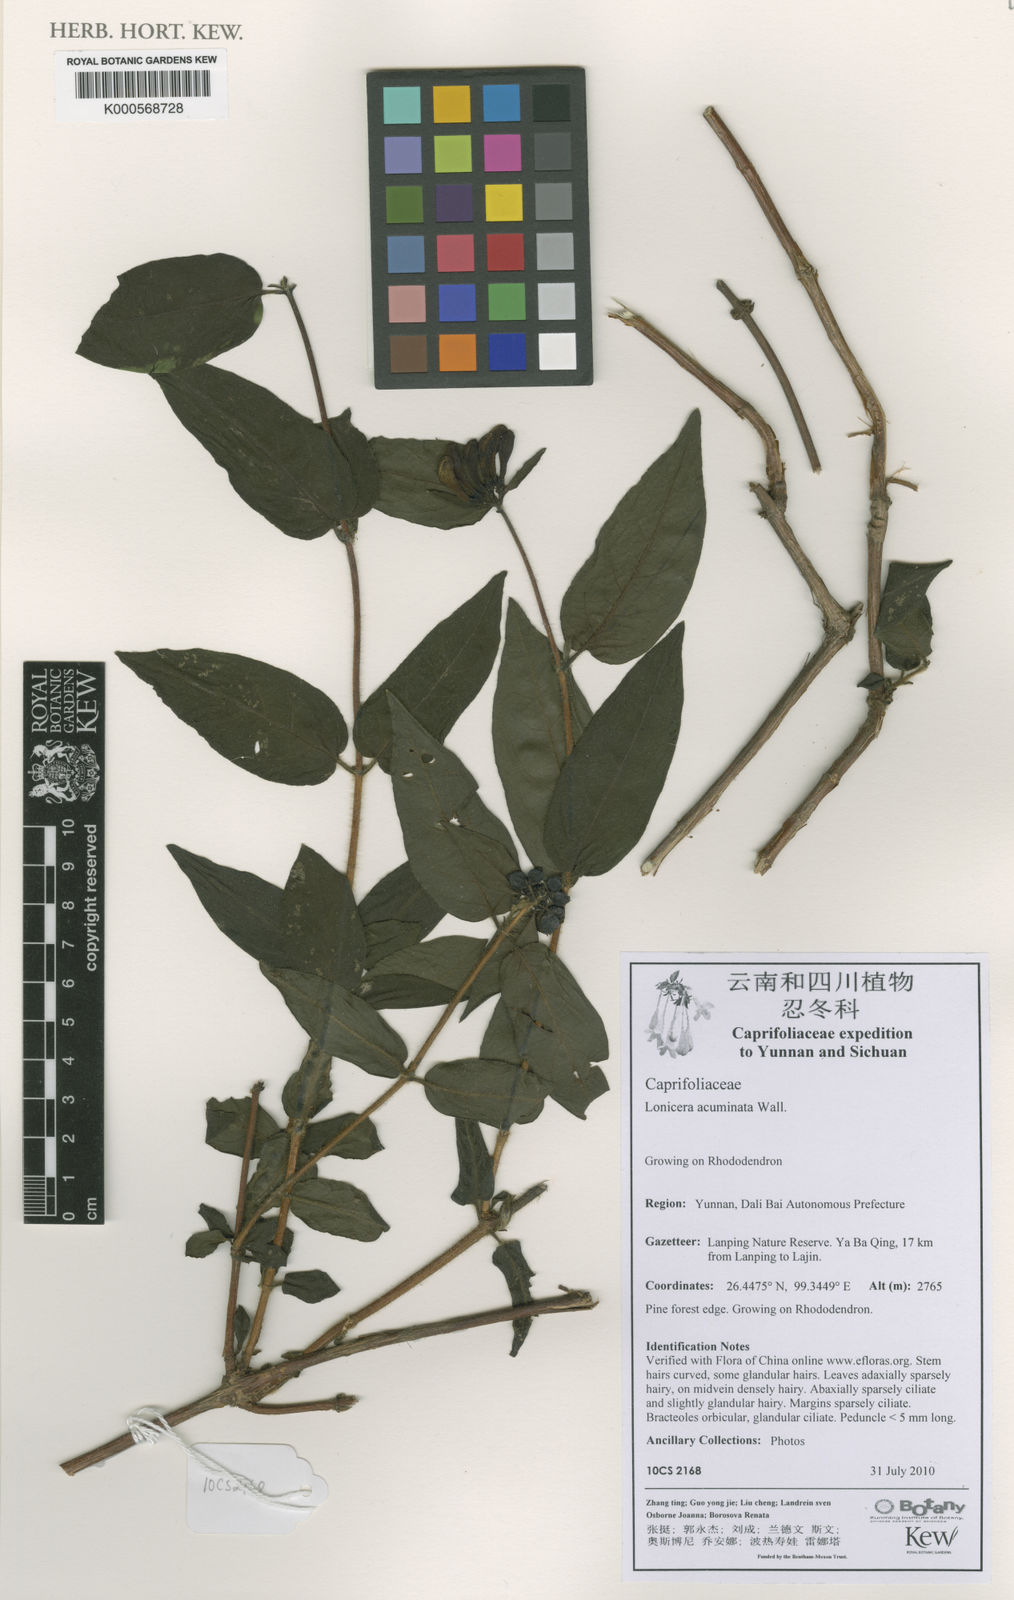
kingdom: Plantae
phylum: Tracheophyta
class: Magnoliopsida
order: Dipsacales
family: Caprifoliaceae
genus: Lonicera
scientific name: Lonicera acuminata
